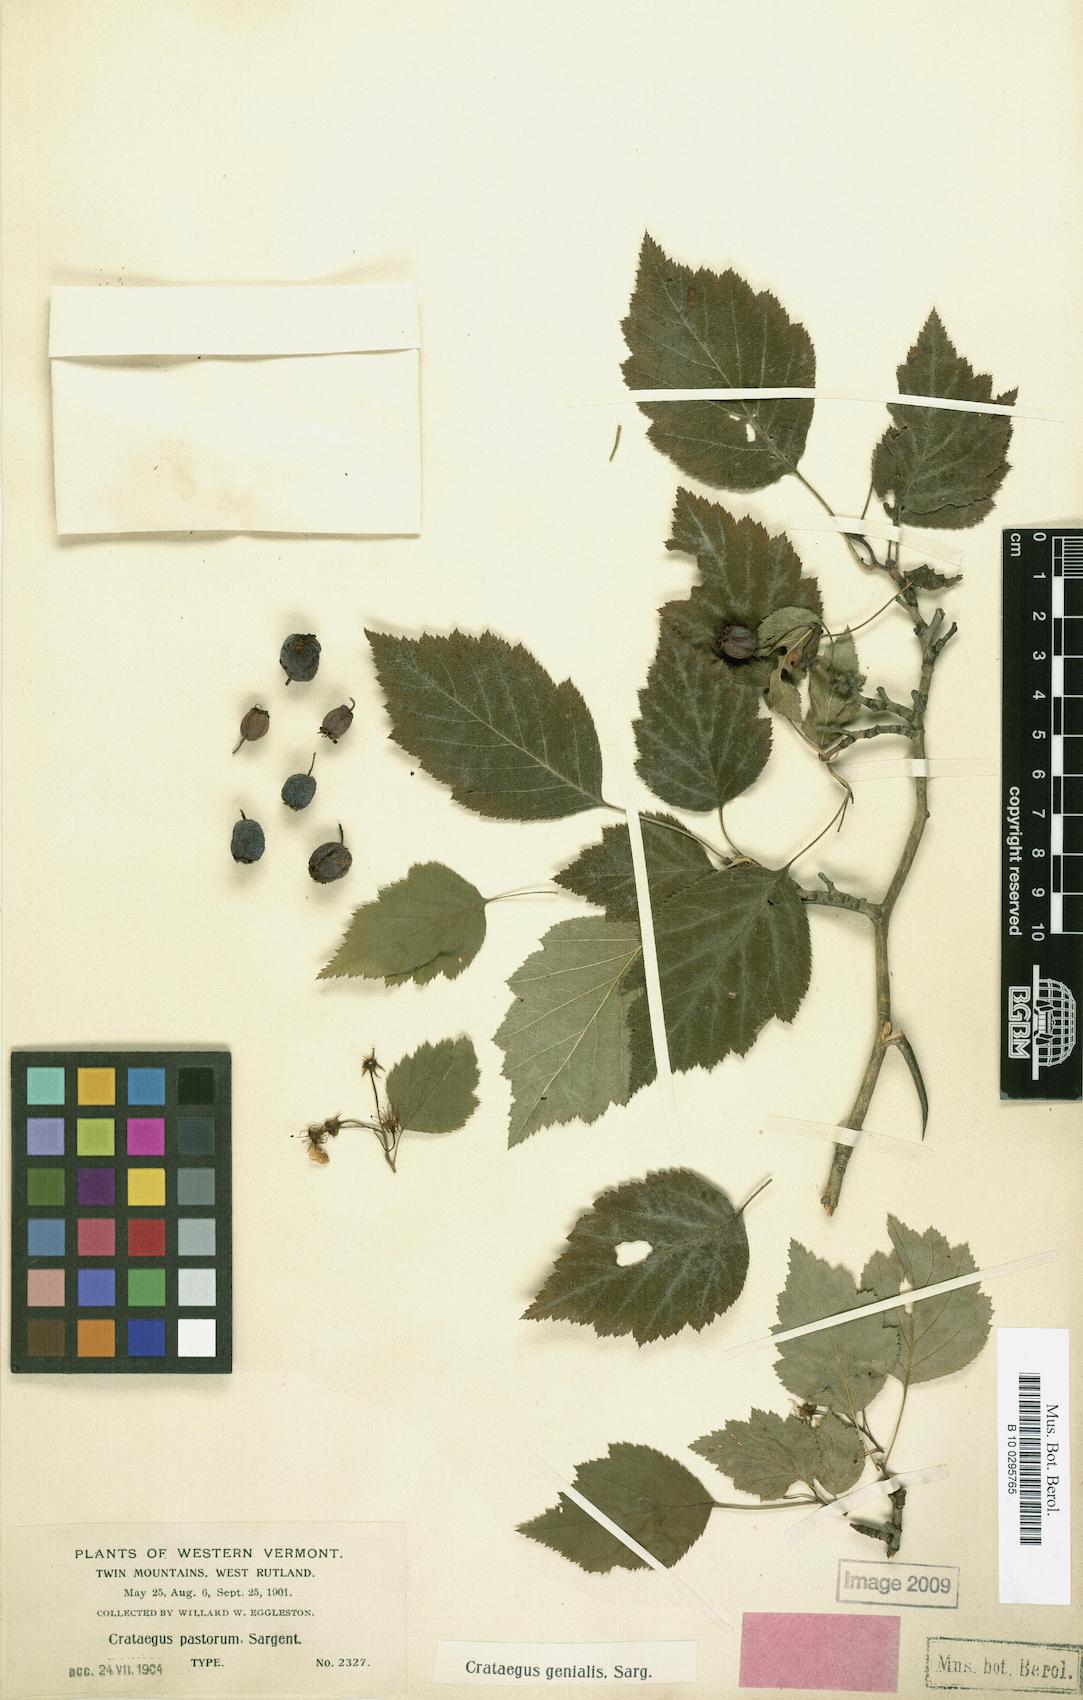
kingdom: Plantae
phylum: Tracheophyta
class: Magnoliopsida
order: Rosales
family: Rosaceae
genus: Crataegus
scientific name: Crataegus genialis
